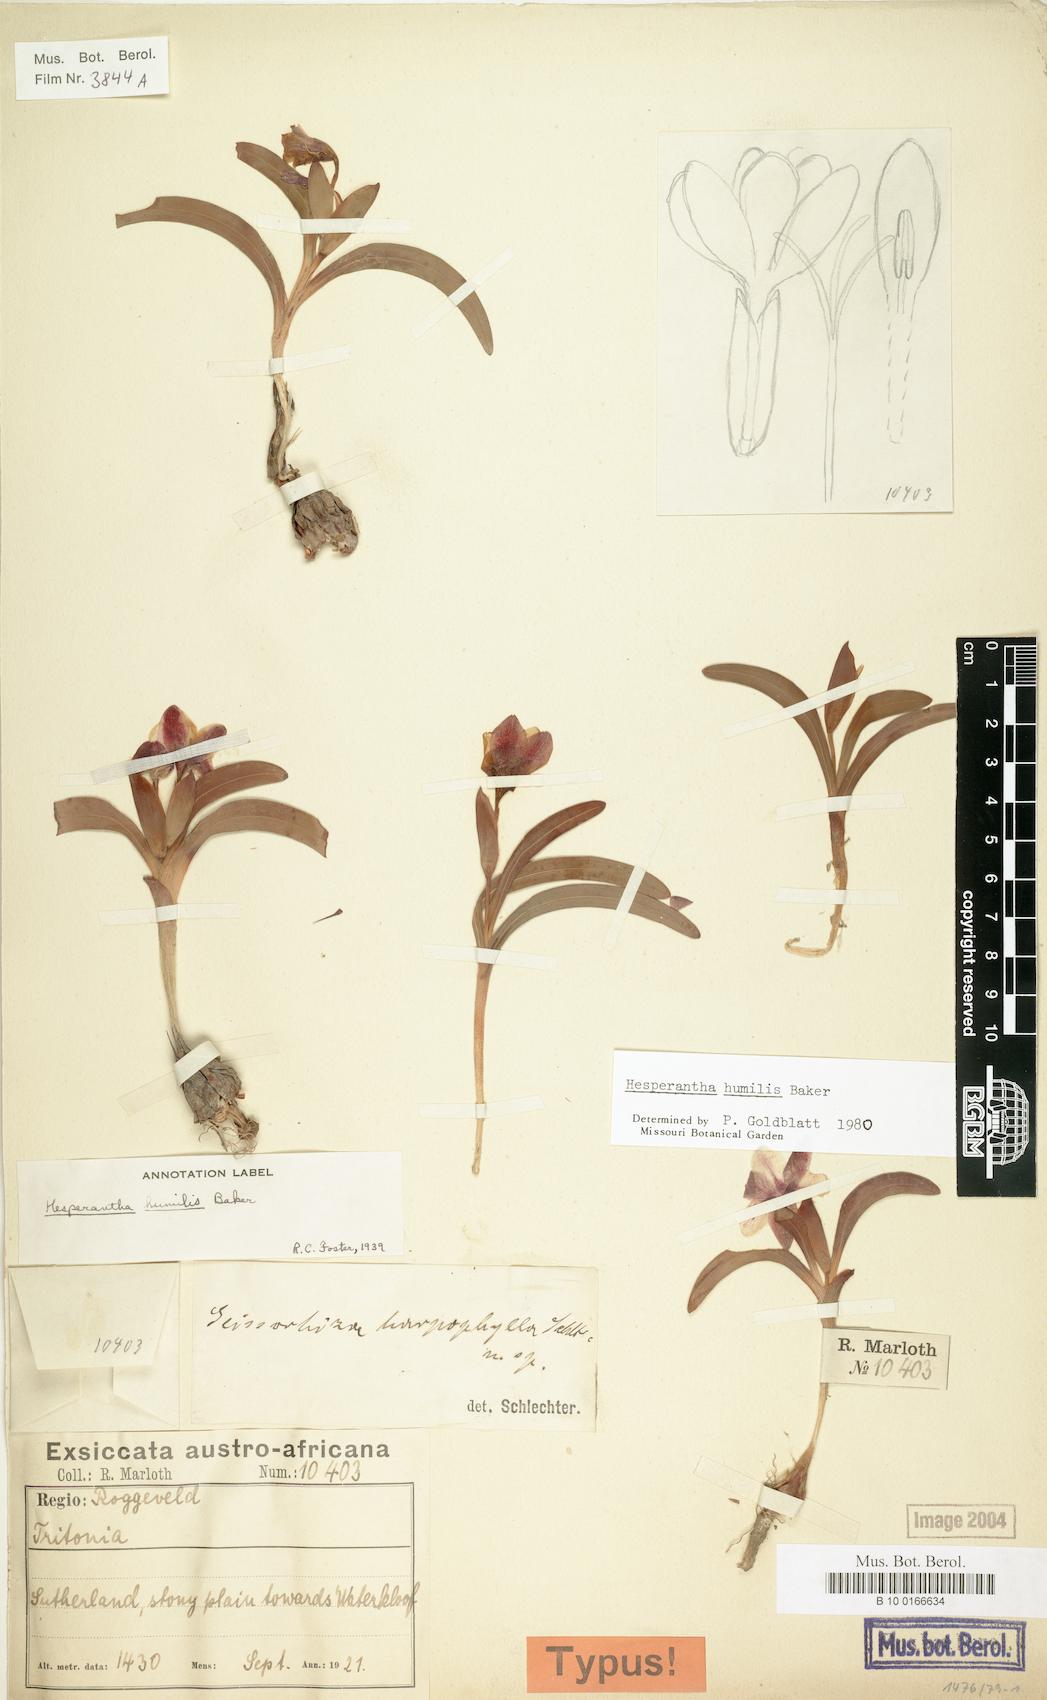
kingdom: Plantae
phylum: Tracheophyta
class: Liliopsida
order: Asparagales
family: Iridaceae
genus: Hesperantha
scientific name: Hesperantha humilis
